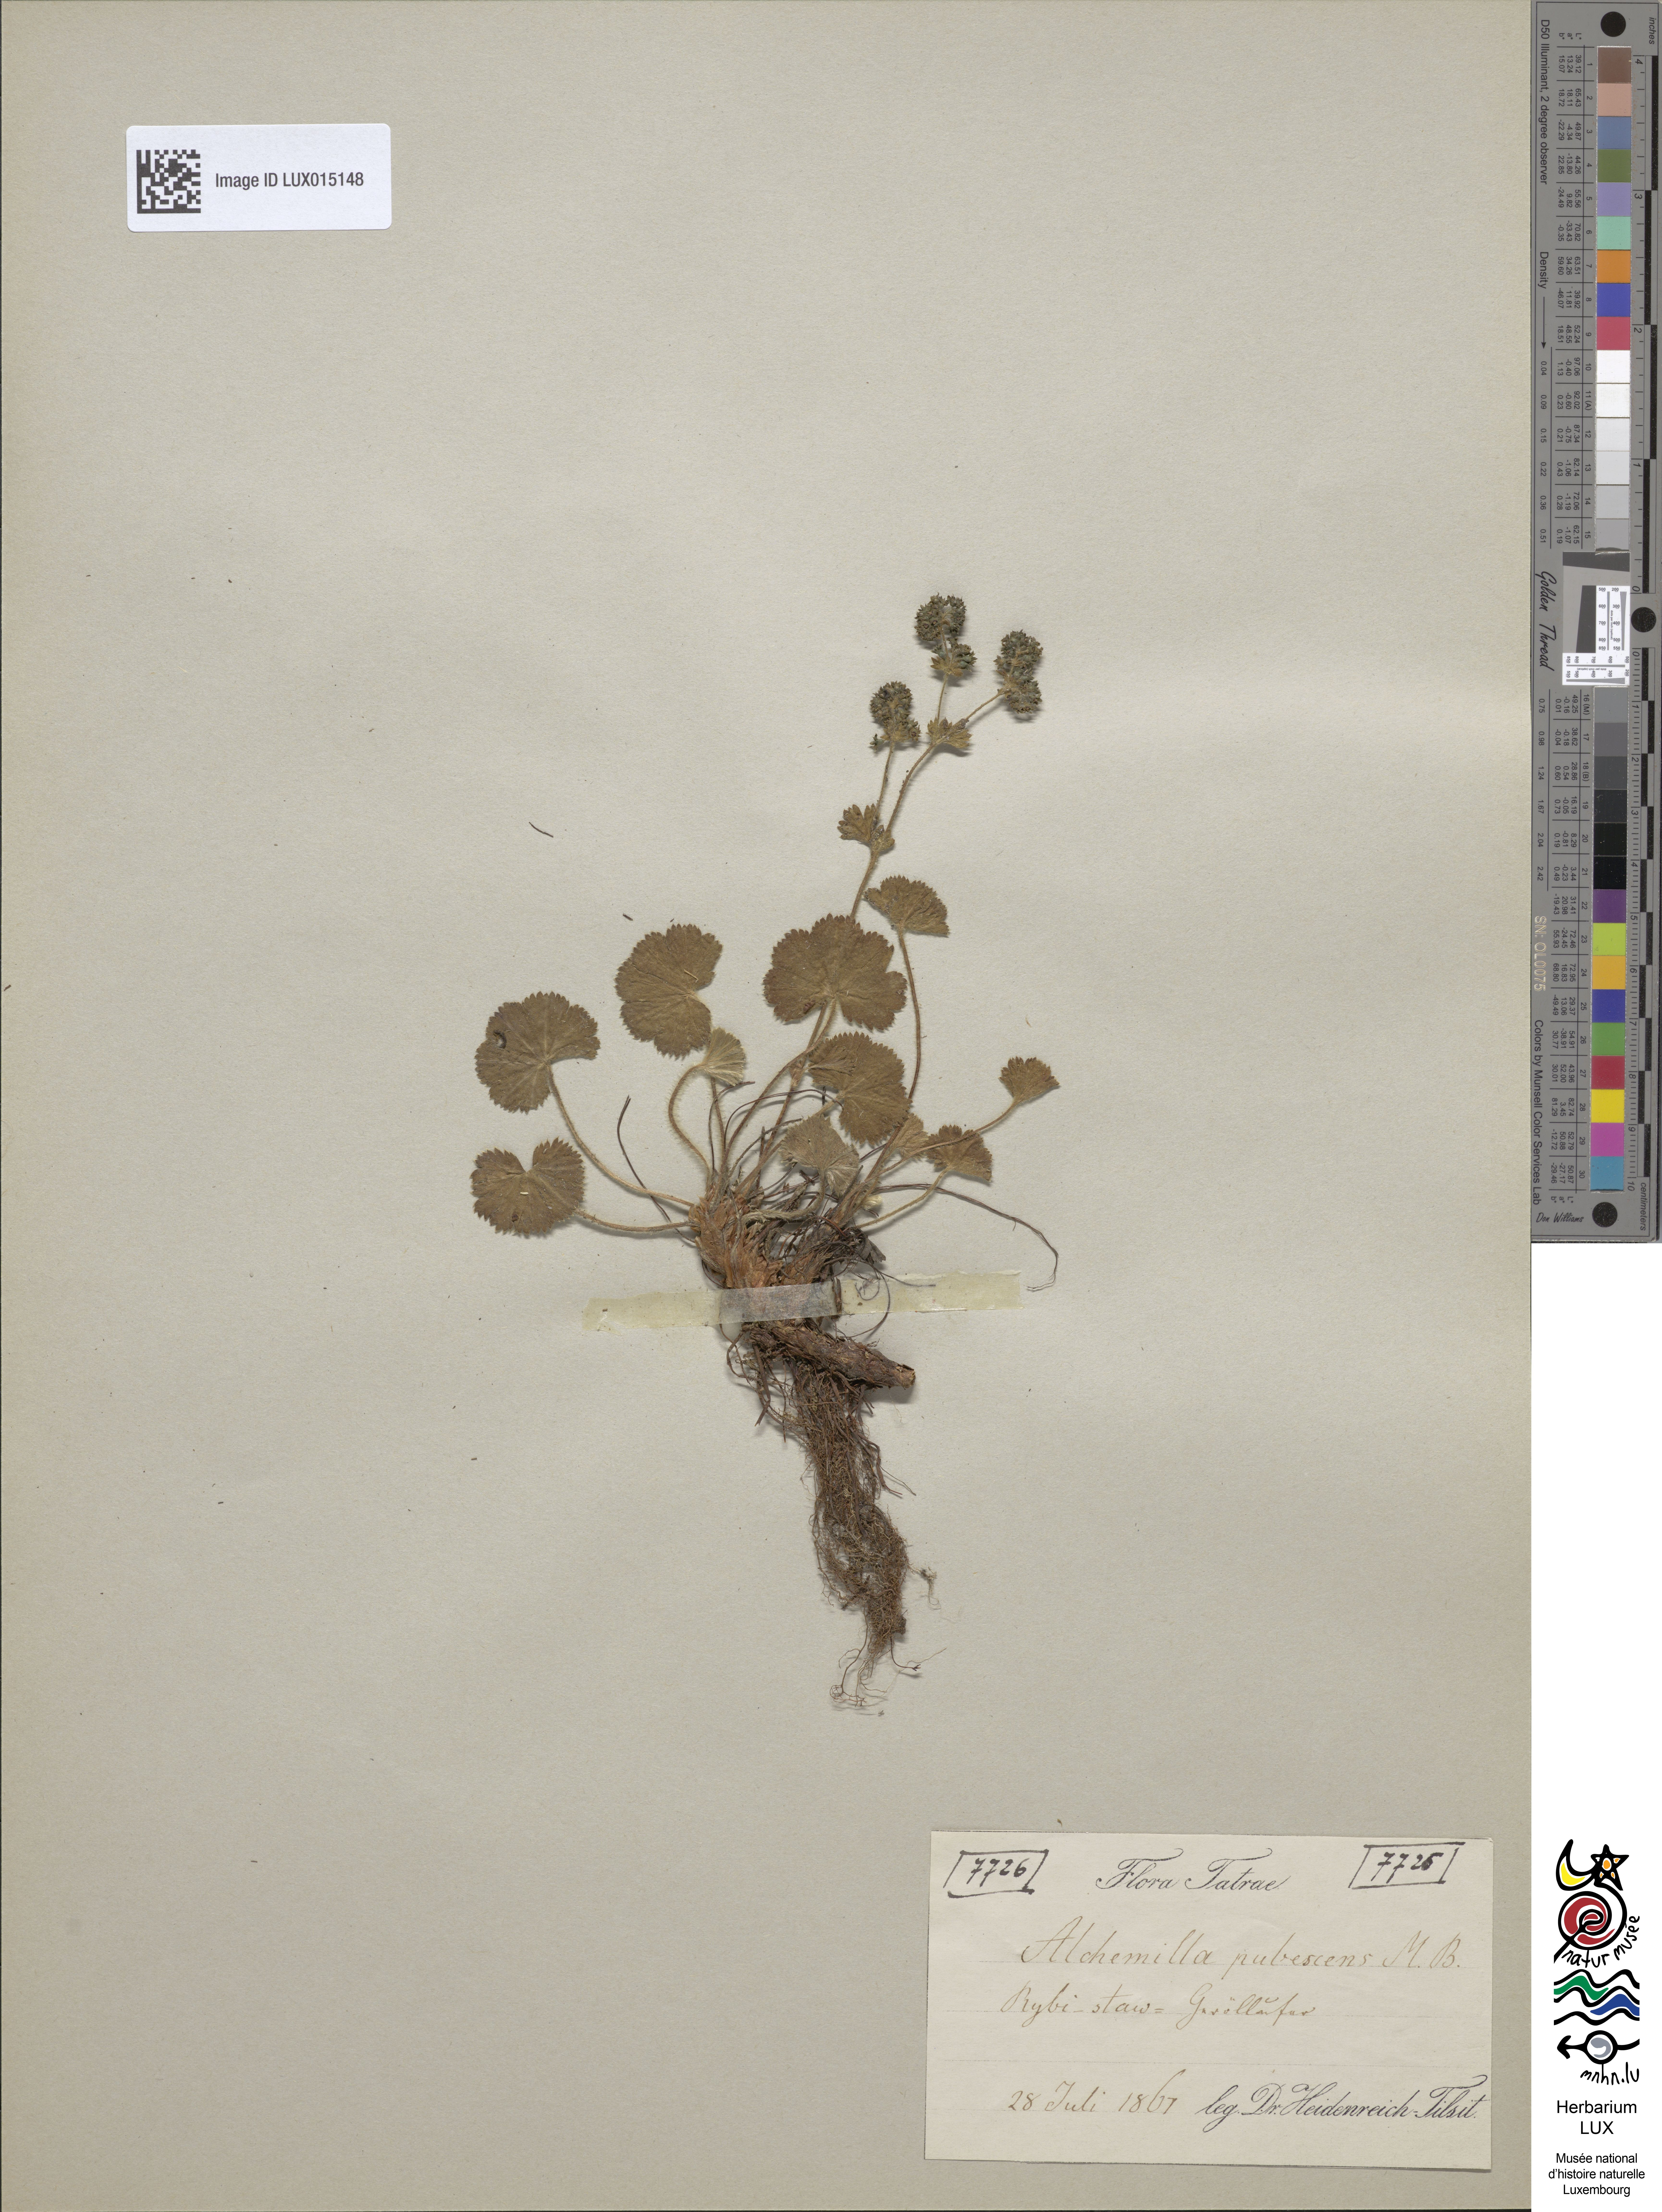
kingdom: Plantae
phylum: Tracheophyta
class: Magnoliopsida
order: Rosales
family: Rosaceae
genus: Alchemilla
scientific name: Alchemilla glaucescens
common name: Silky lady's mantle
